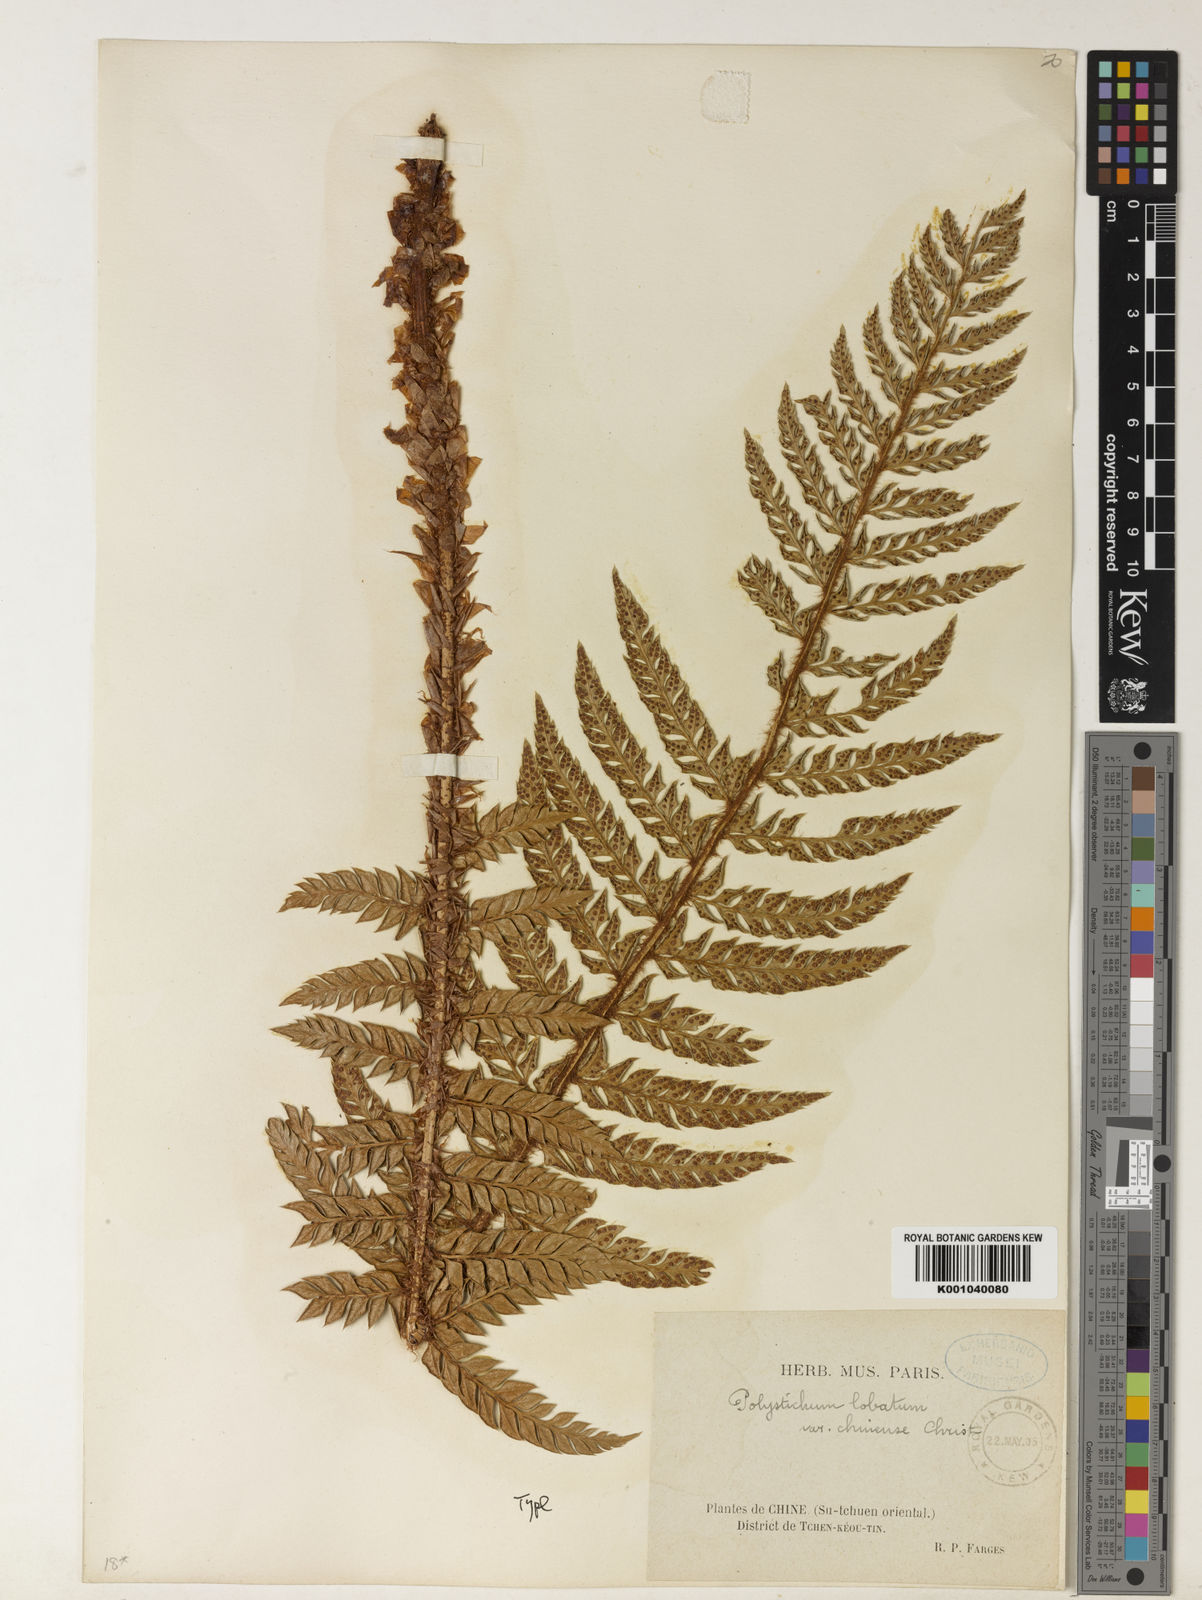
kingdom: Plantae
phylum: Tracheophyta
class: Polypodiopsida
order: Polypodiales
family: Dryopteridaceae
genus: Polystichum
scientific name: Polystichum
